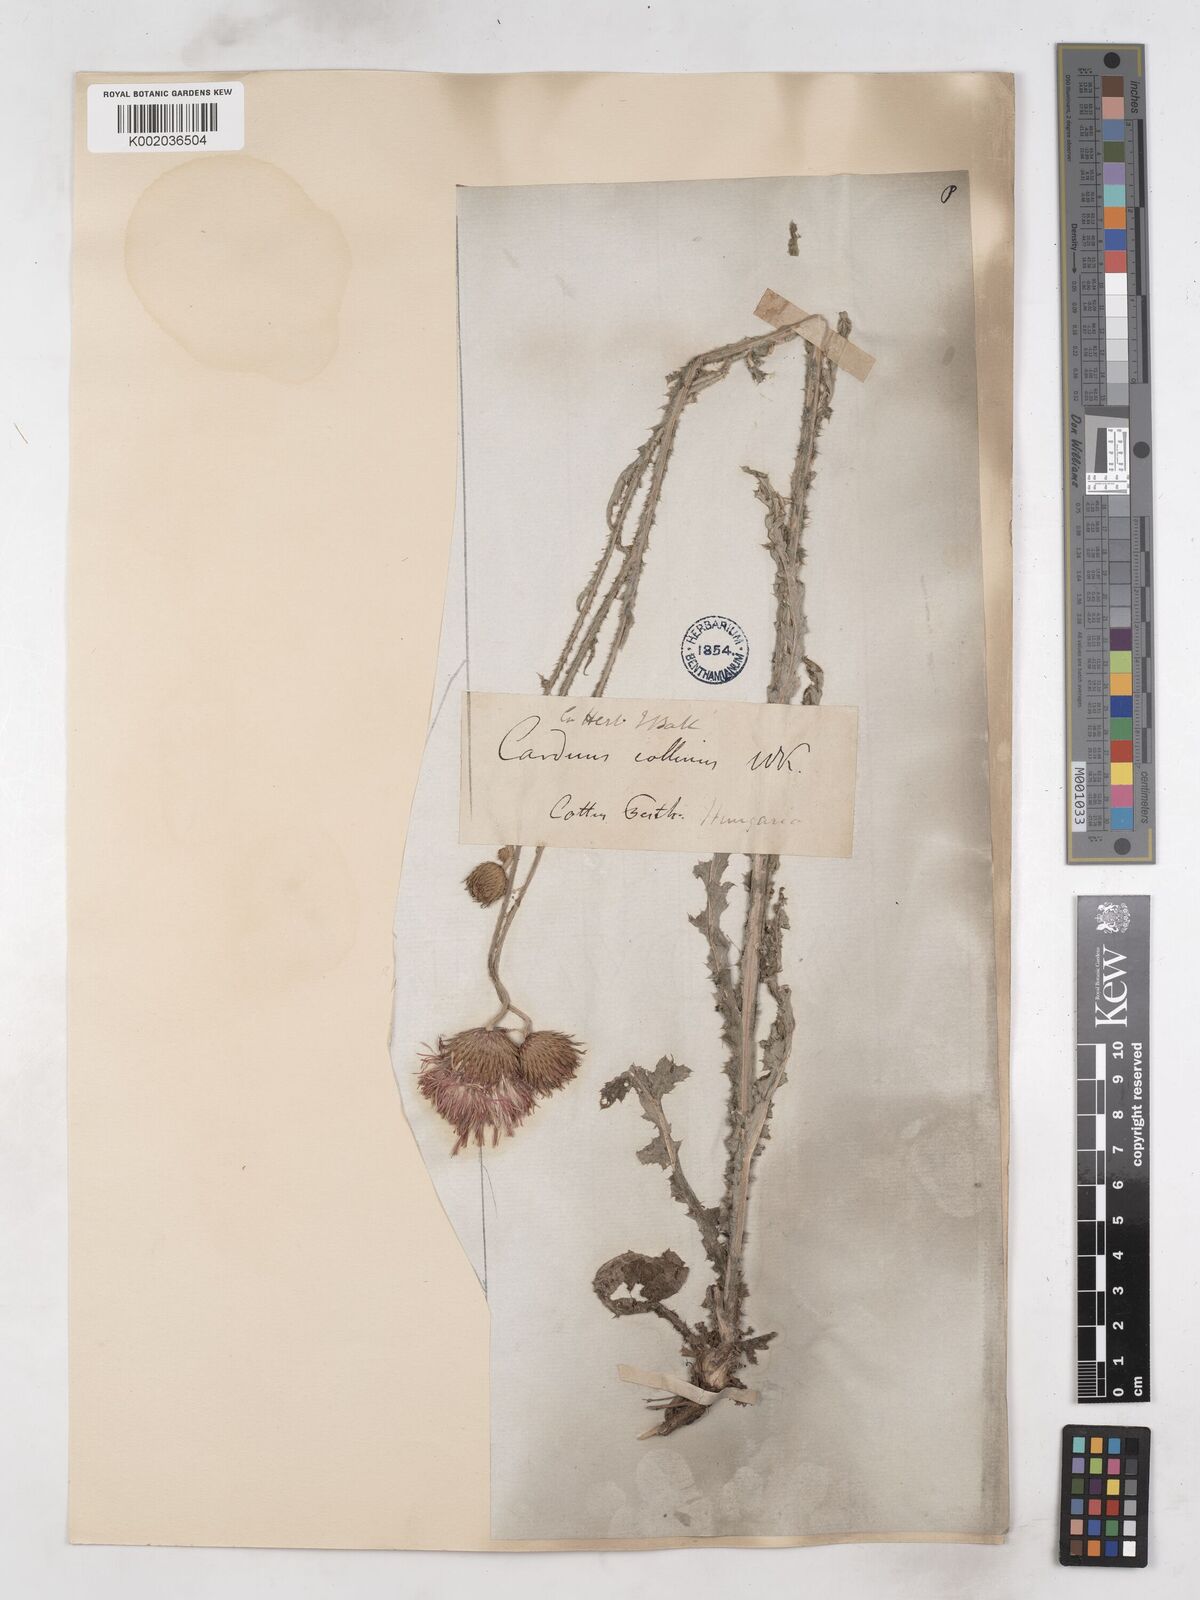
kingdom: Plantae
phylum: Tracheophyta
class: Magnoliopsida
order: Asterales
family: Asteraceae
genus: Carduus
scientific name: Carduus collinus
